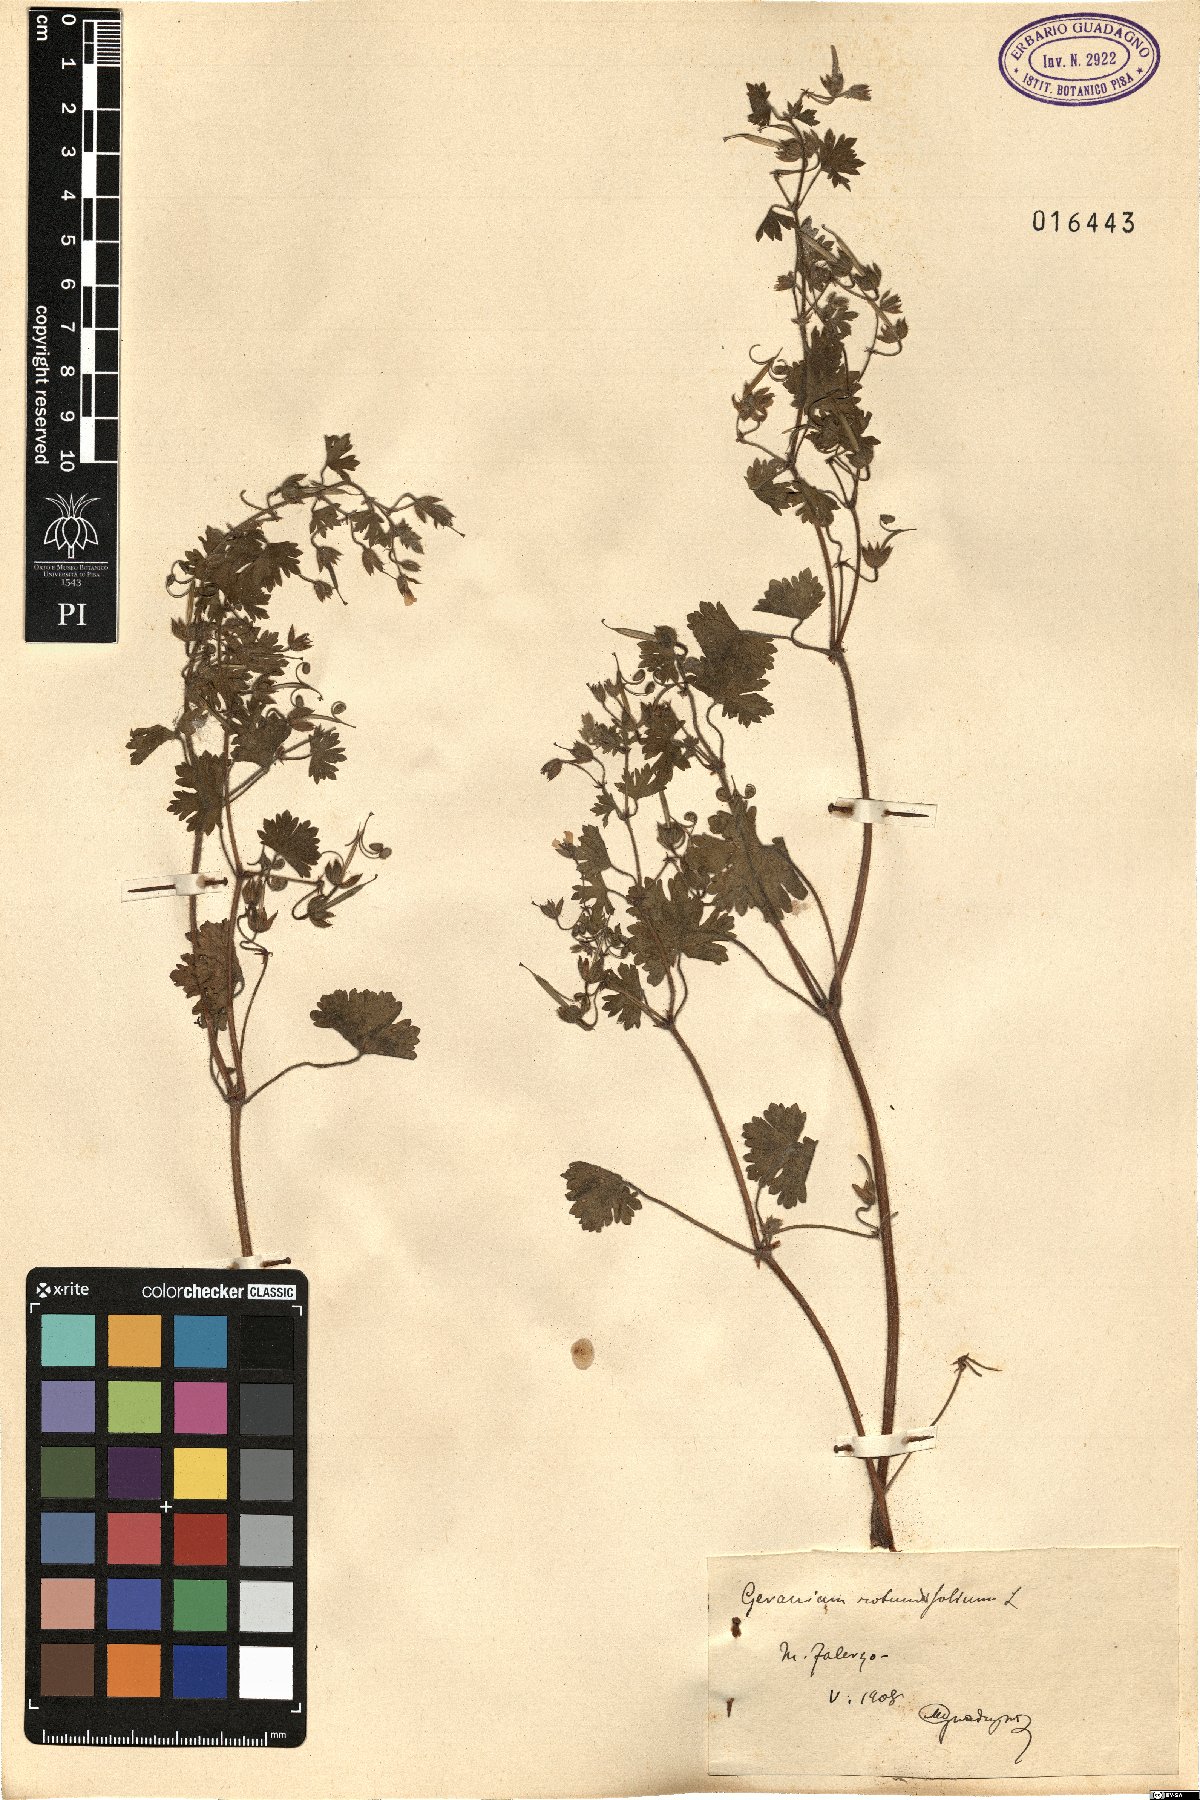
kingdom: Plantae
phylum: Tracheophyta
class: Magnoliopsida
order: Geraniales
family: Geraniaceae
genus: Geranium
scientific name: Geranium rotundifolium
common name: Round-leaved crane's-bill
